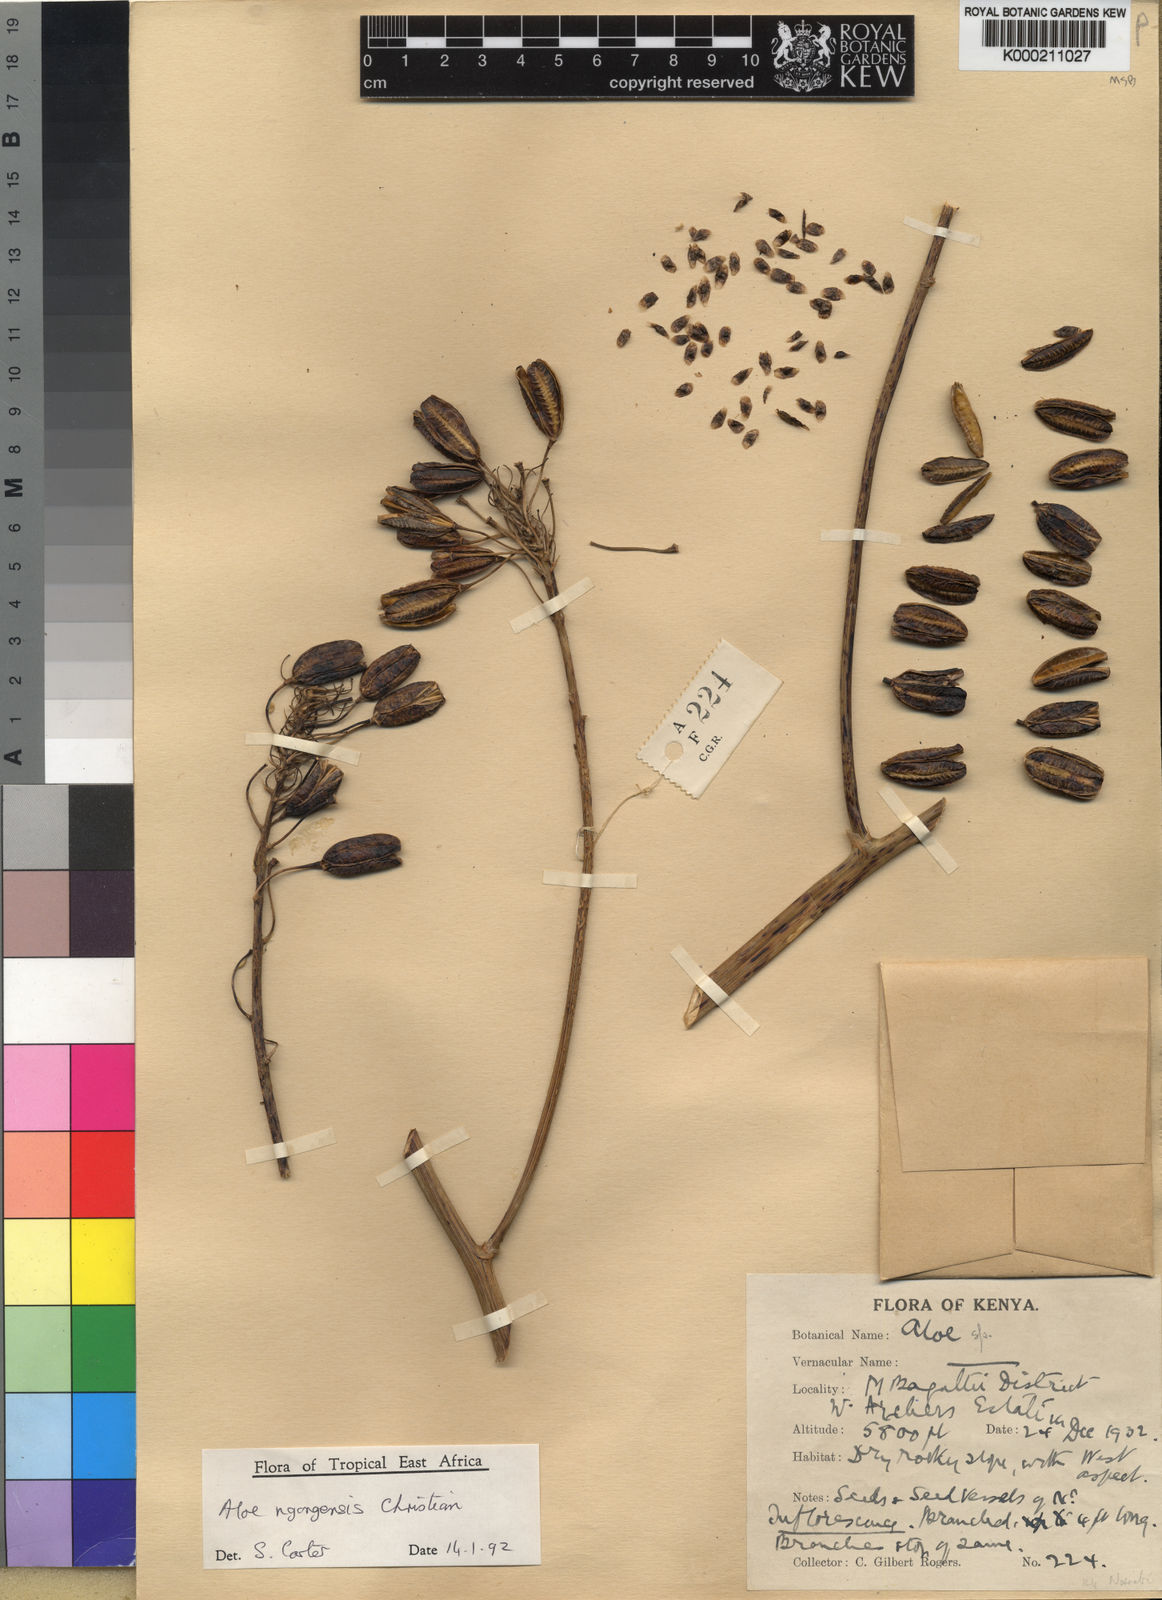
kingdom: Plantae
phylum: Tracheophyta
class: Liliopsida
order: Asparagales
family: Asphodelaceae
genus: Aloe
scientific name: Aloe ngongensis
